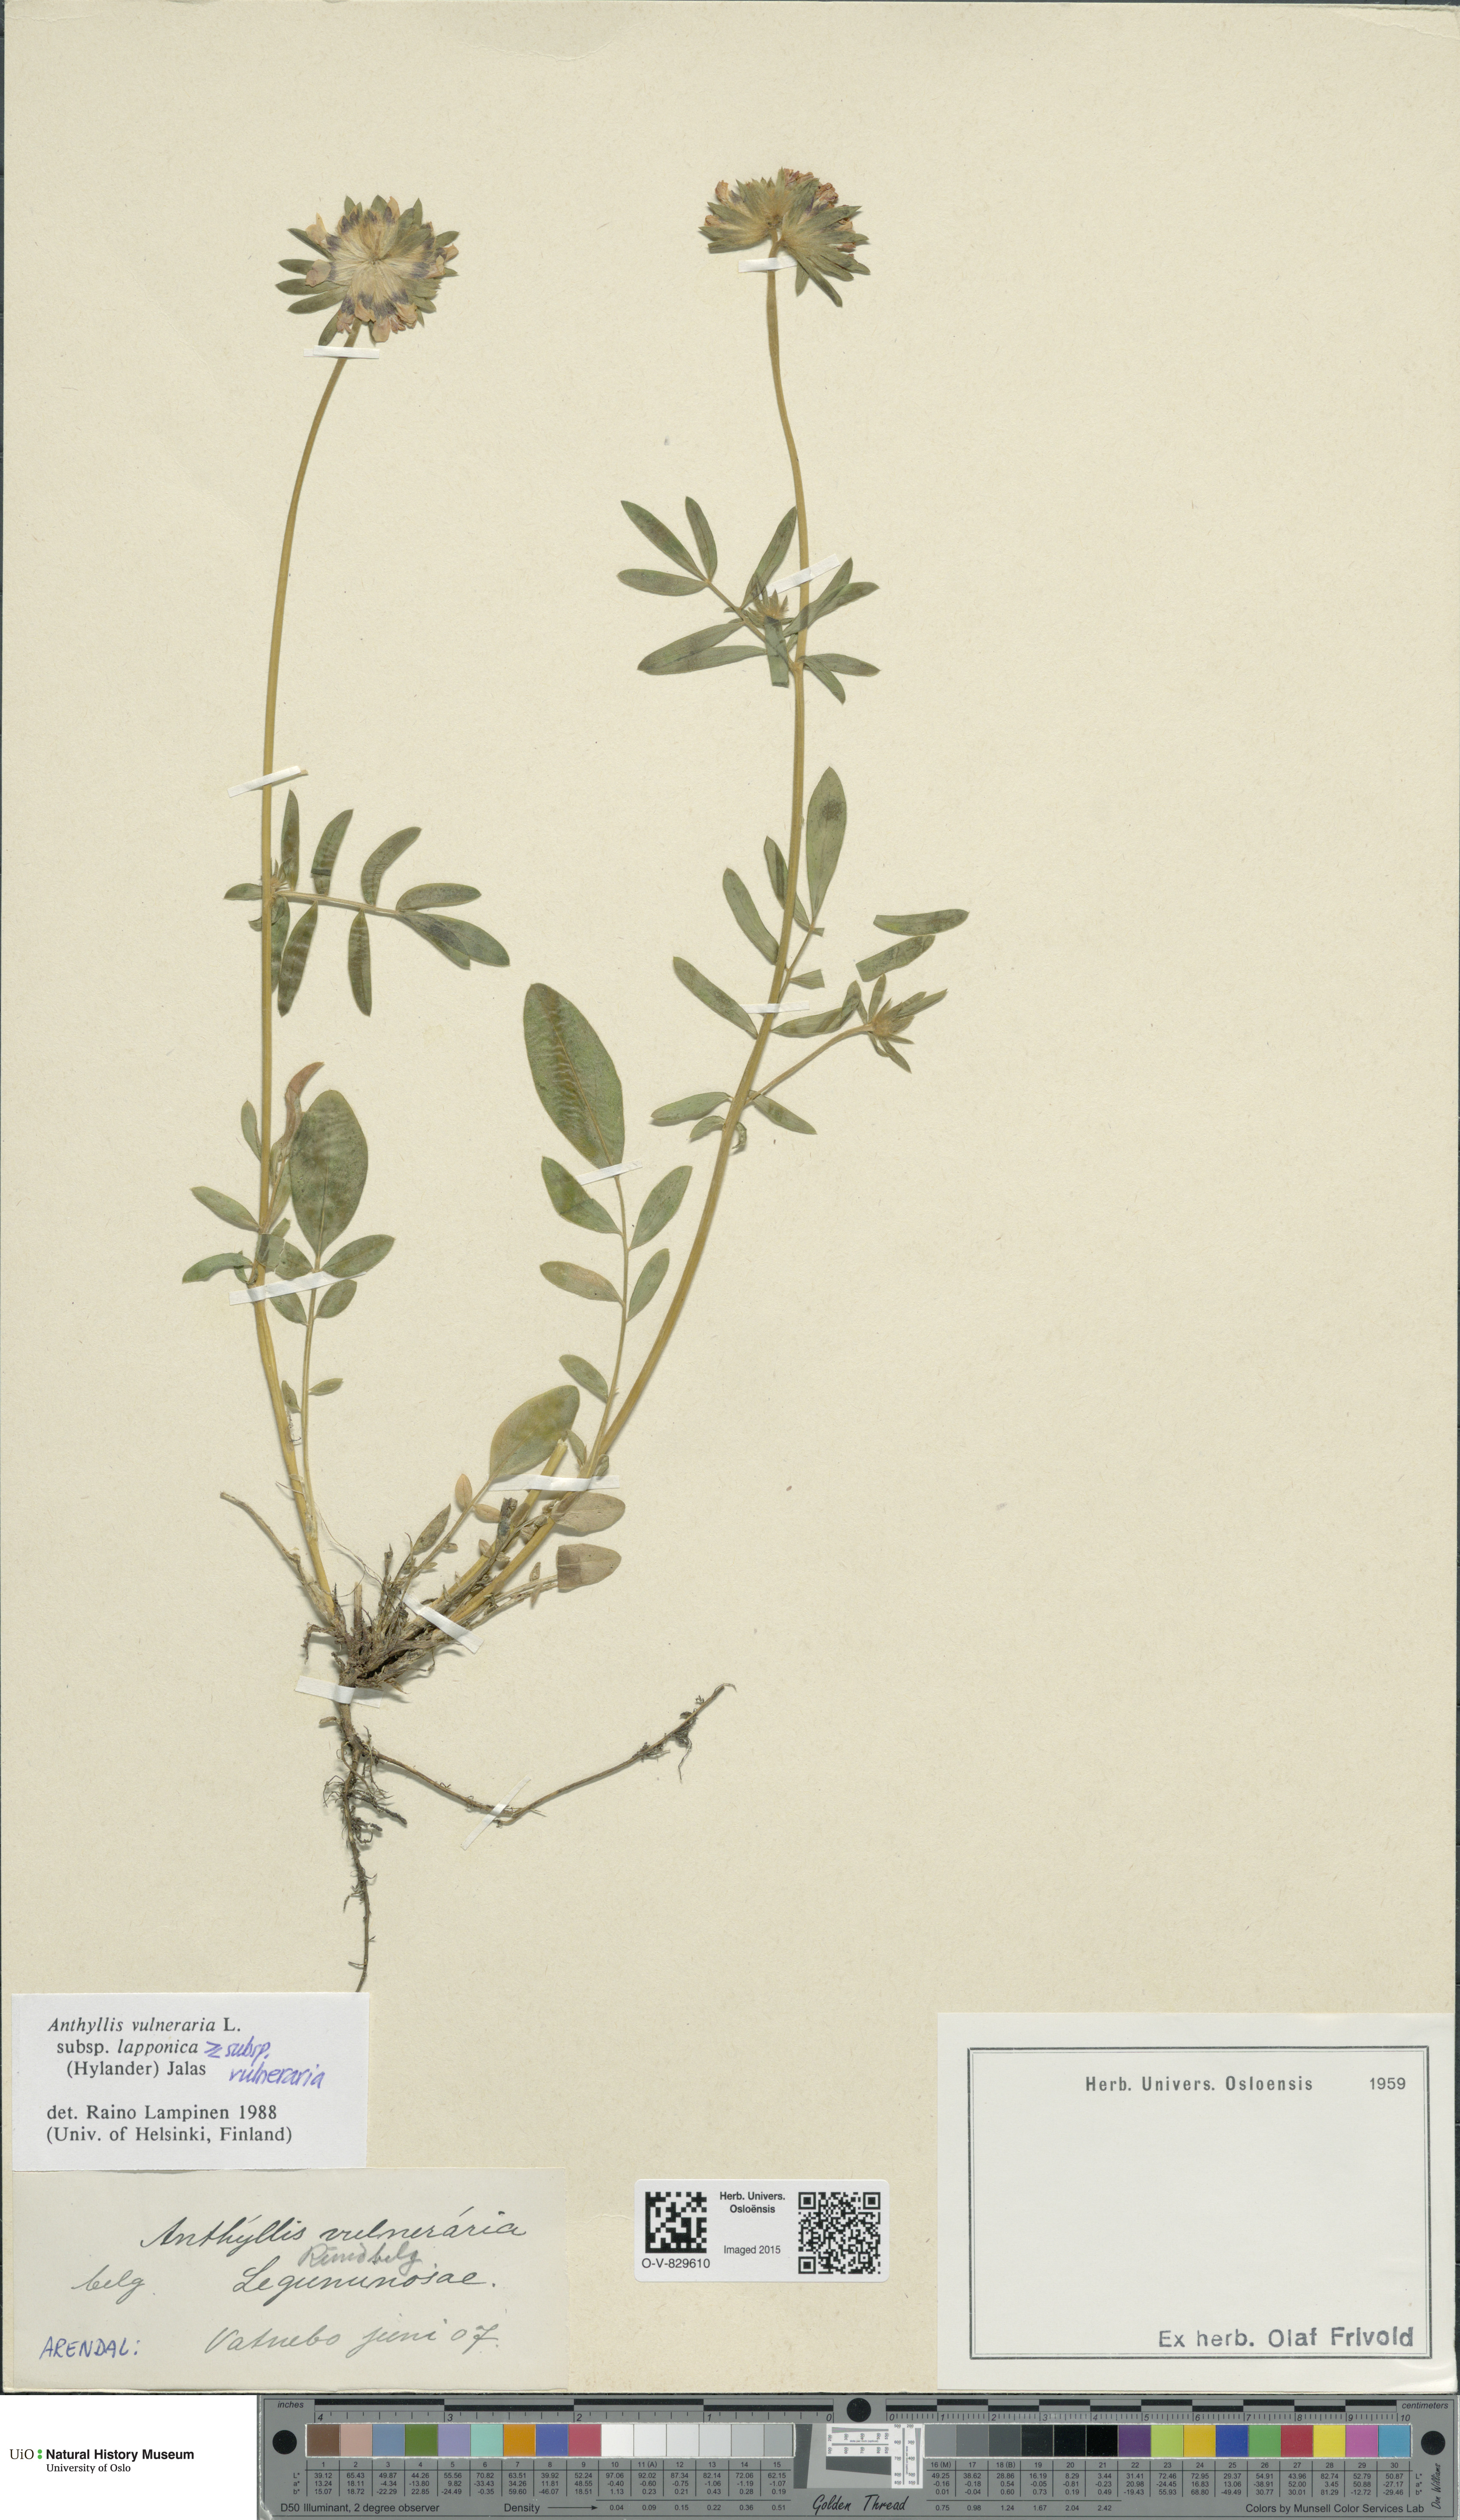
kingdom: Plantae
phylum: Tracheophyta
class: Magnoliopsida
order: Fabales
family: Fabaceae
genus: Anthyllis
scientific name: Anthyllis
